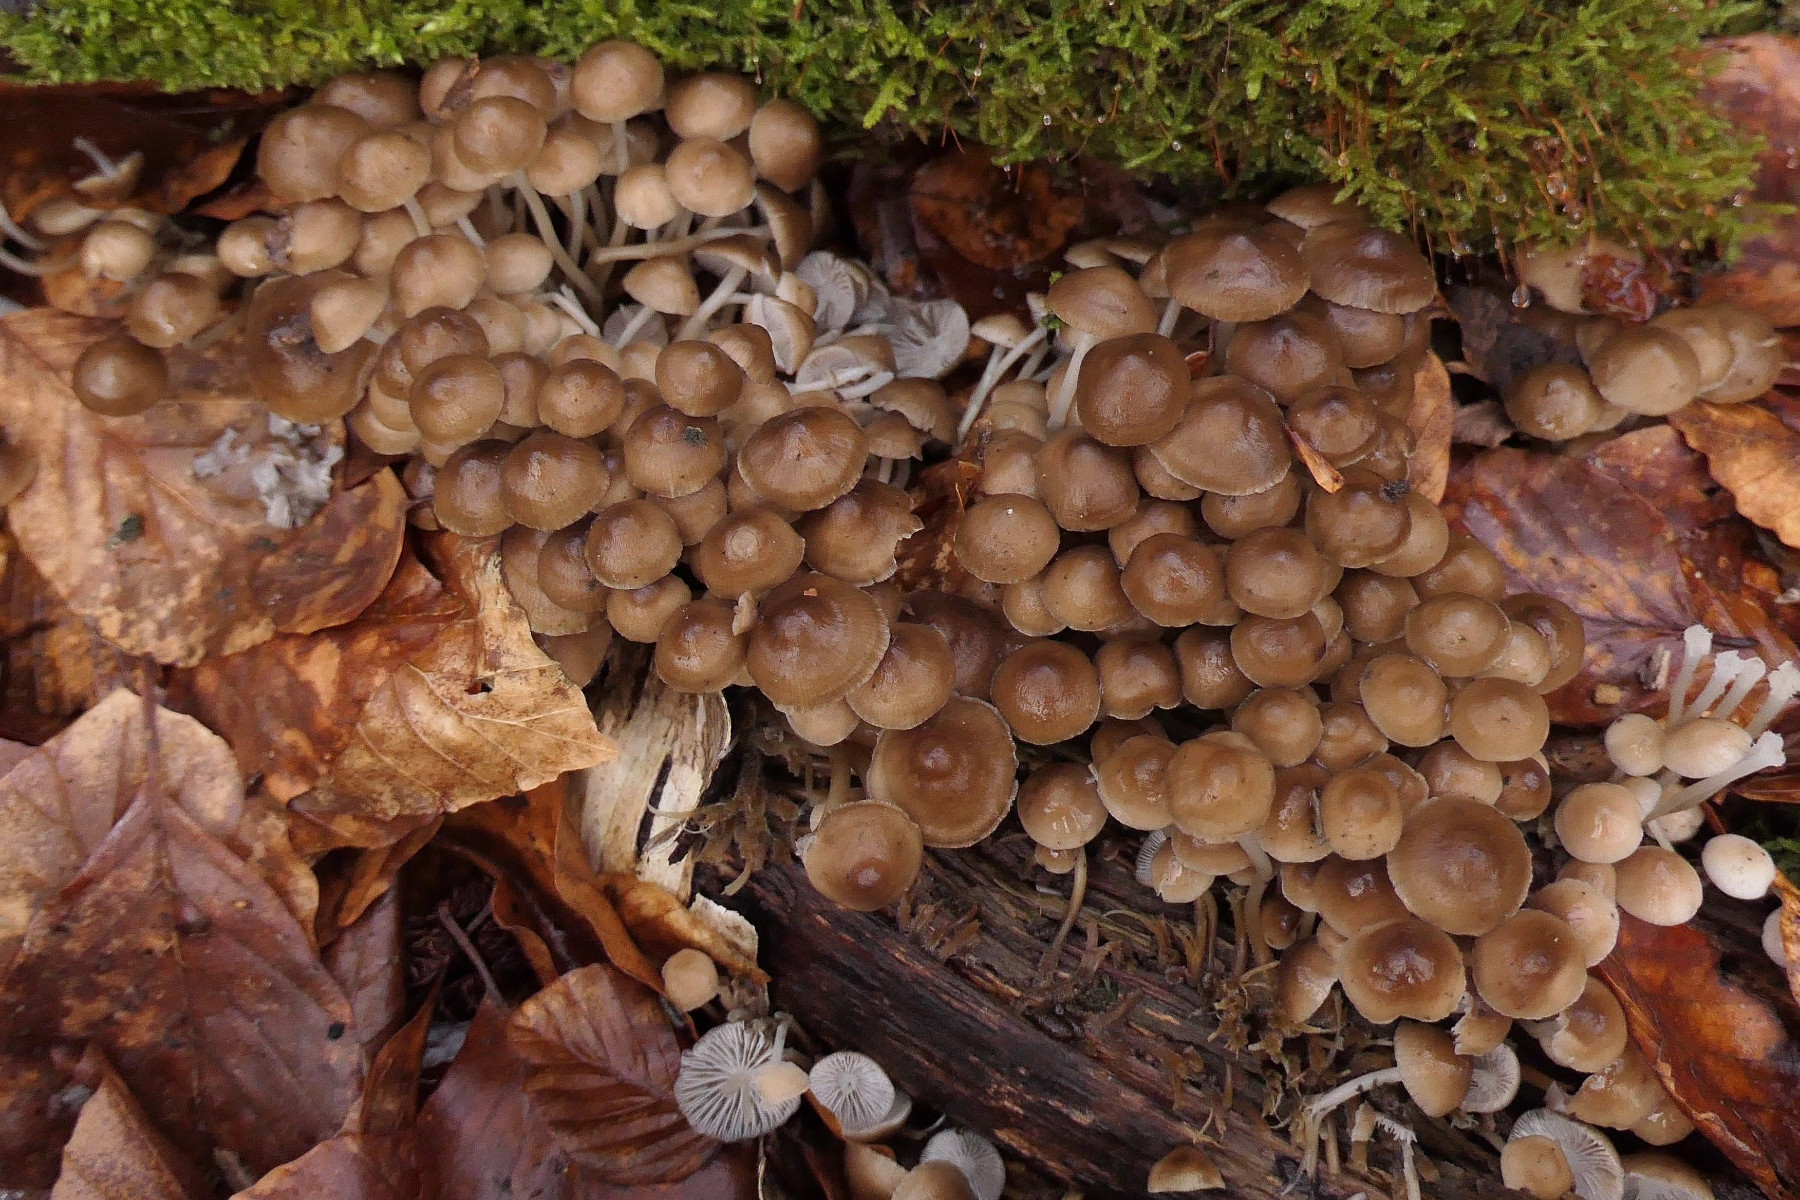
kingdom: Fungi
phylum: Basidiomycota
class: Agaricomycetes
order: Agaricales
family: Mycenaceae
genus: Mycena
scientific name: Mycena tintinnabulum
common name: vinter-huesvamp
